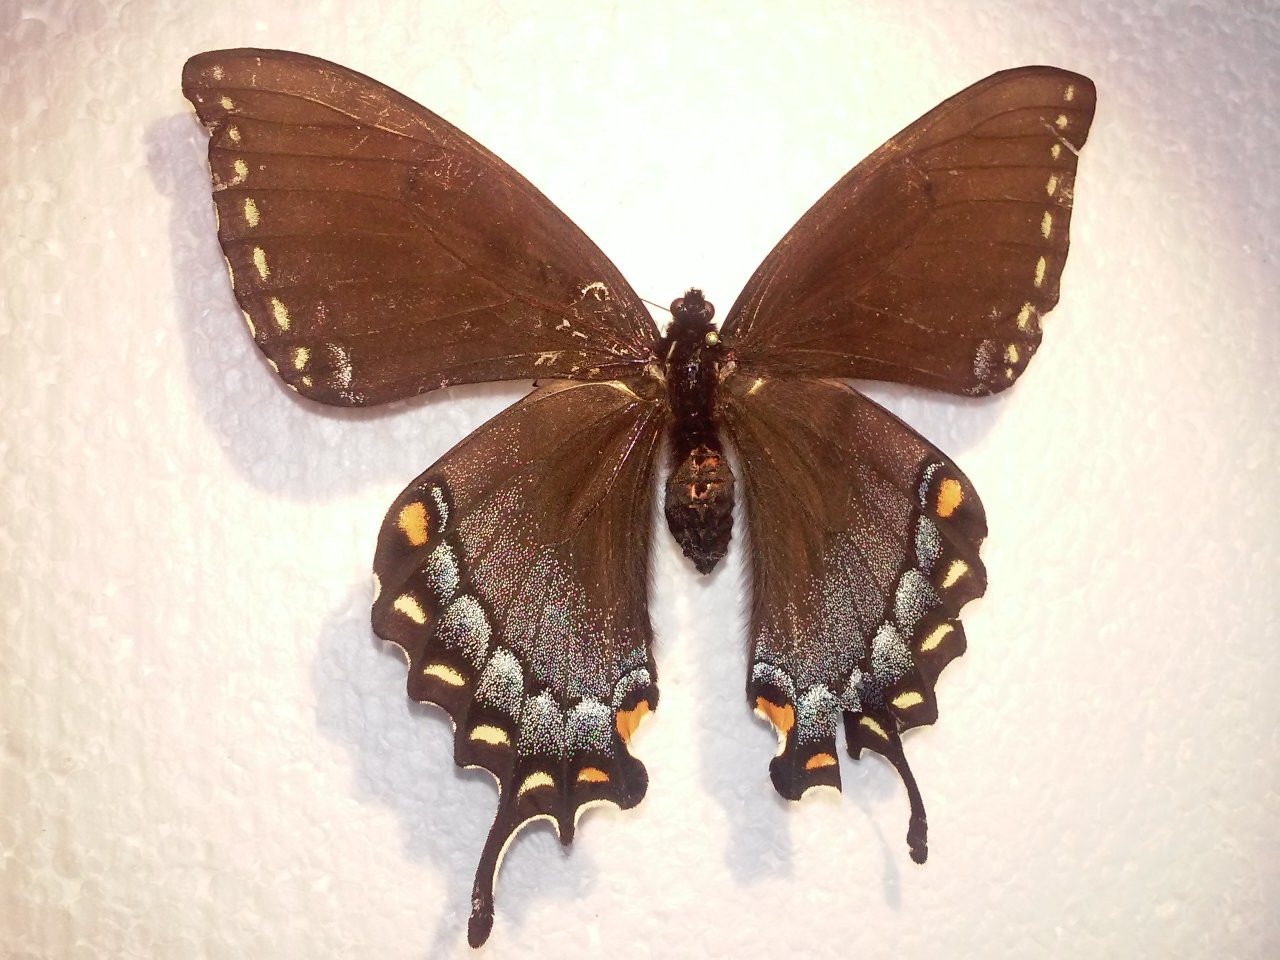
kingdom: Animalia
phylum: Arthropoda
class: Insecta
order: Lepidoptera
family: Papilionidae
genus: Pterourus
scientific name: Pterourus glaucus
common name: Eastern Tiger Swallowtail
